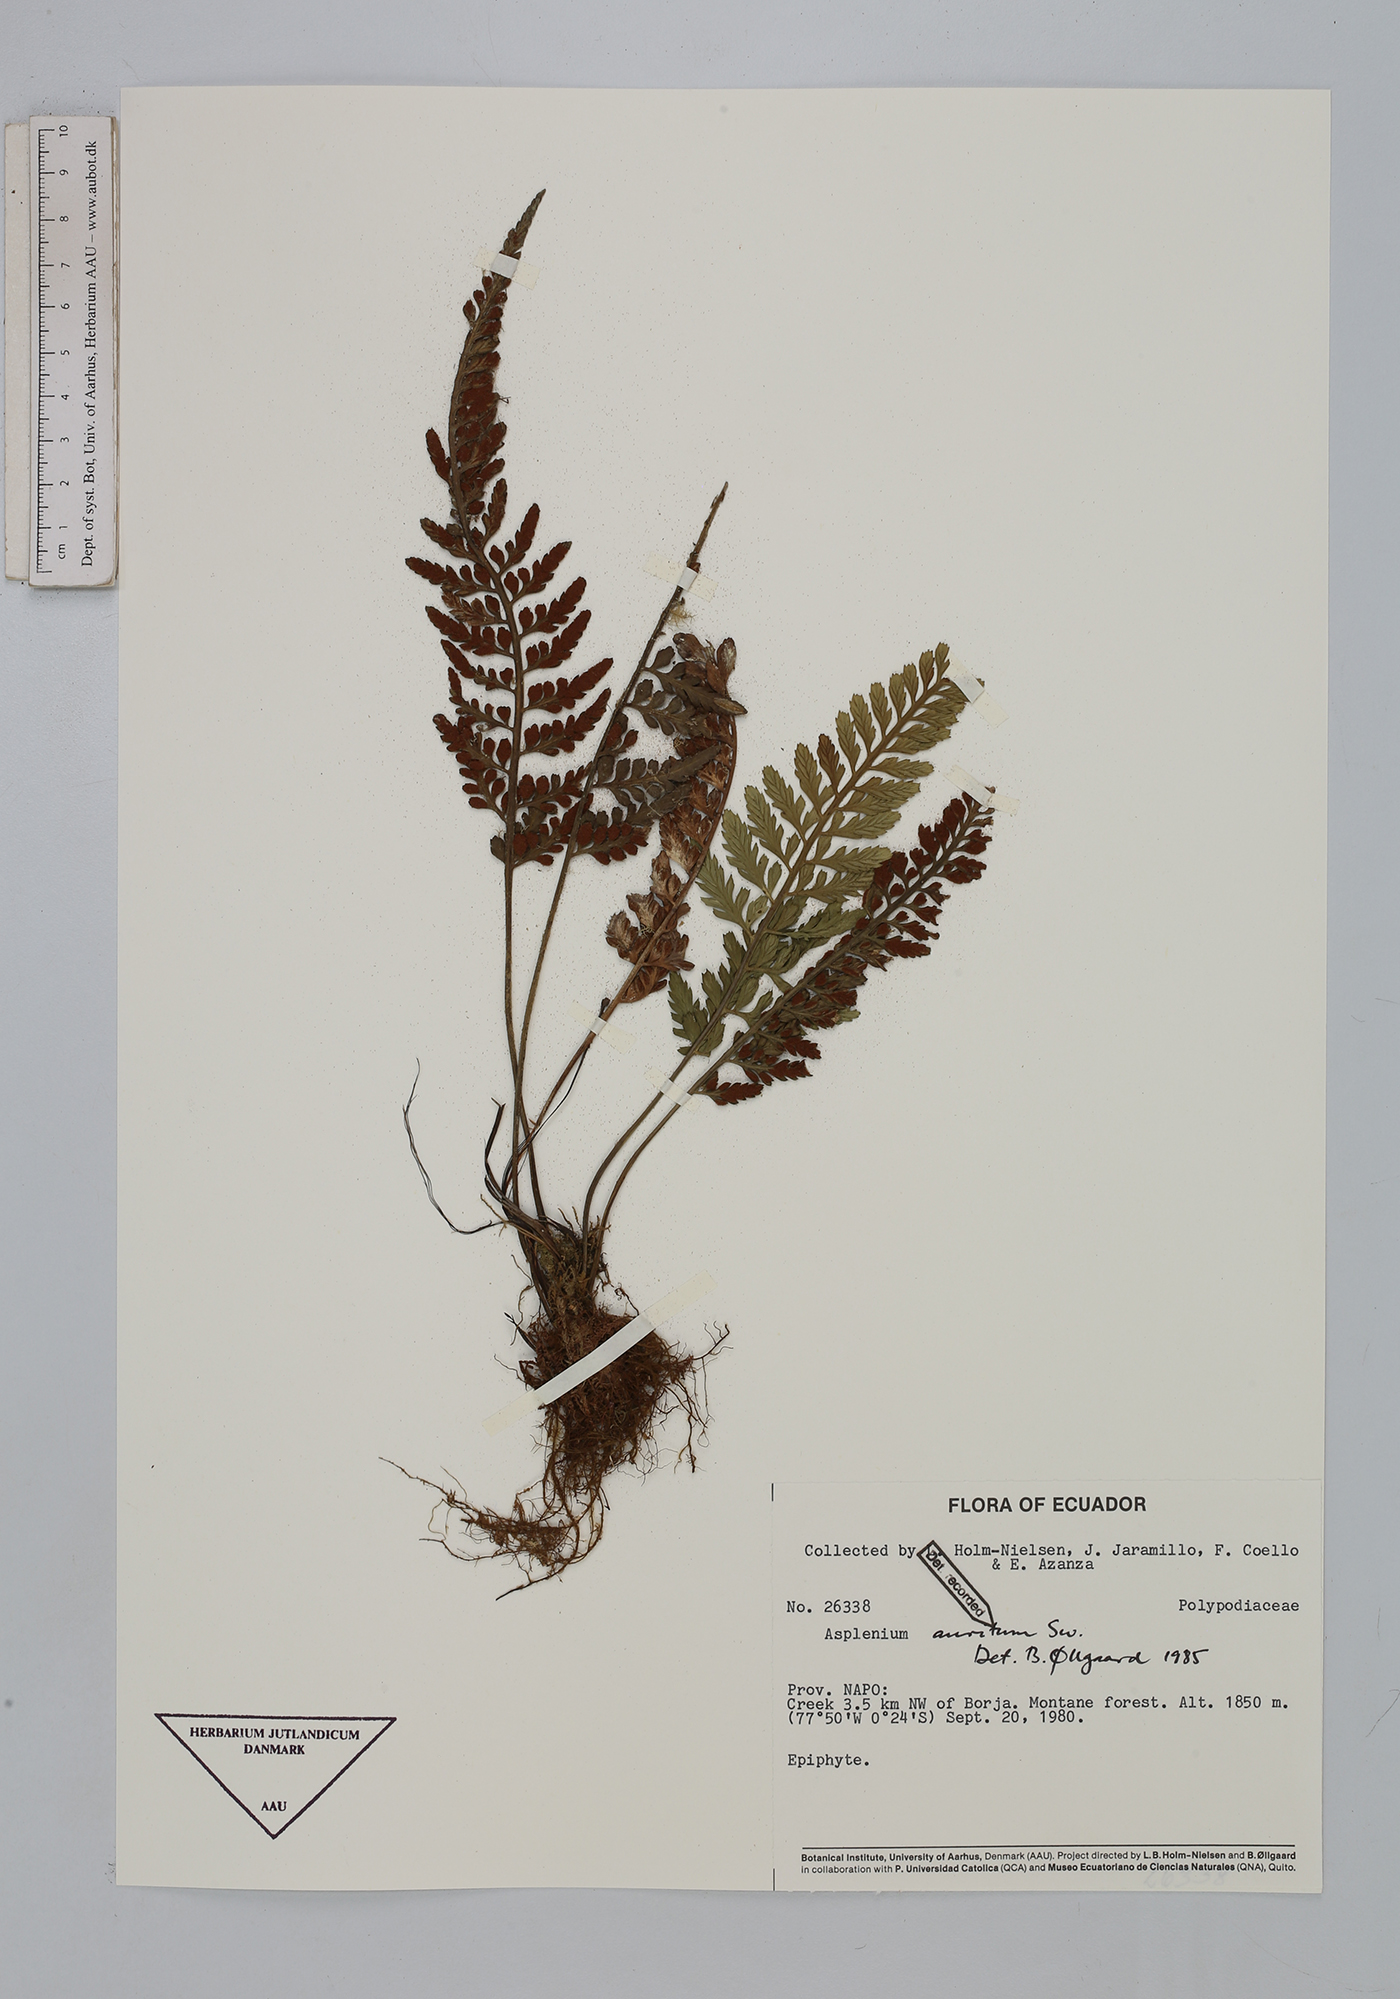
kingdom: Plantae
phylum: Tracheophyta
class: Polypodiopsida
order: Polypodiales
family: Aspleniaceae
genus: Asplenium
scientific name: Asplenium auritum
